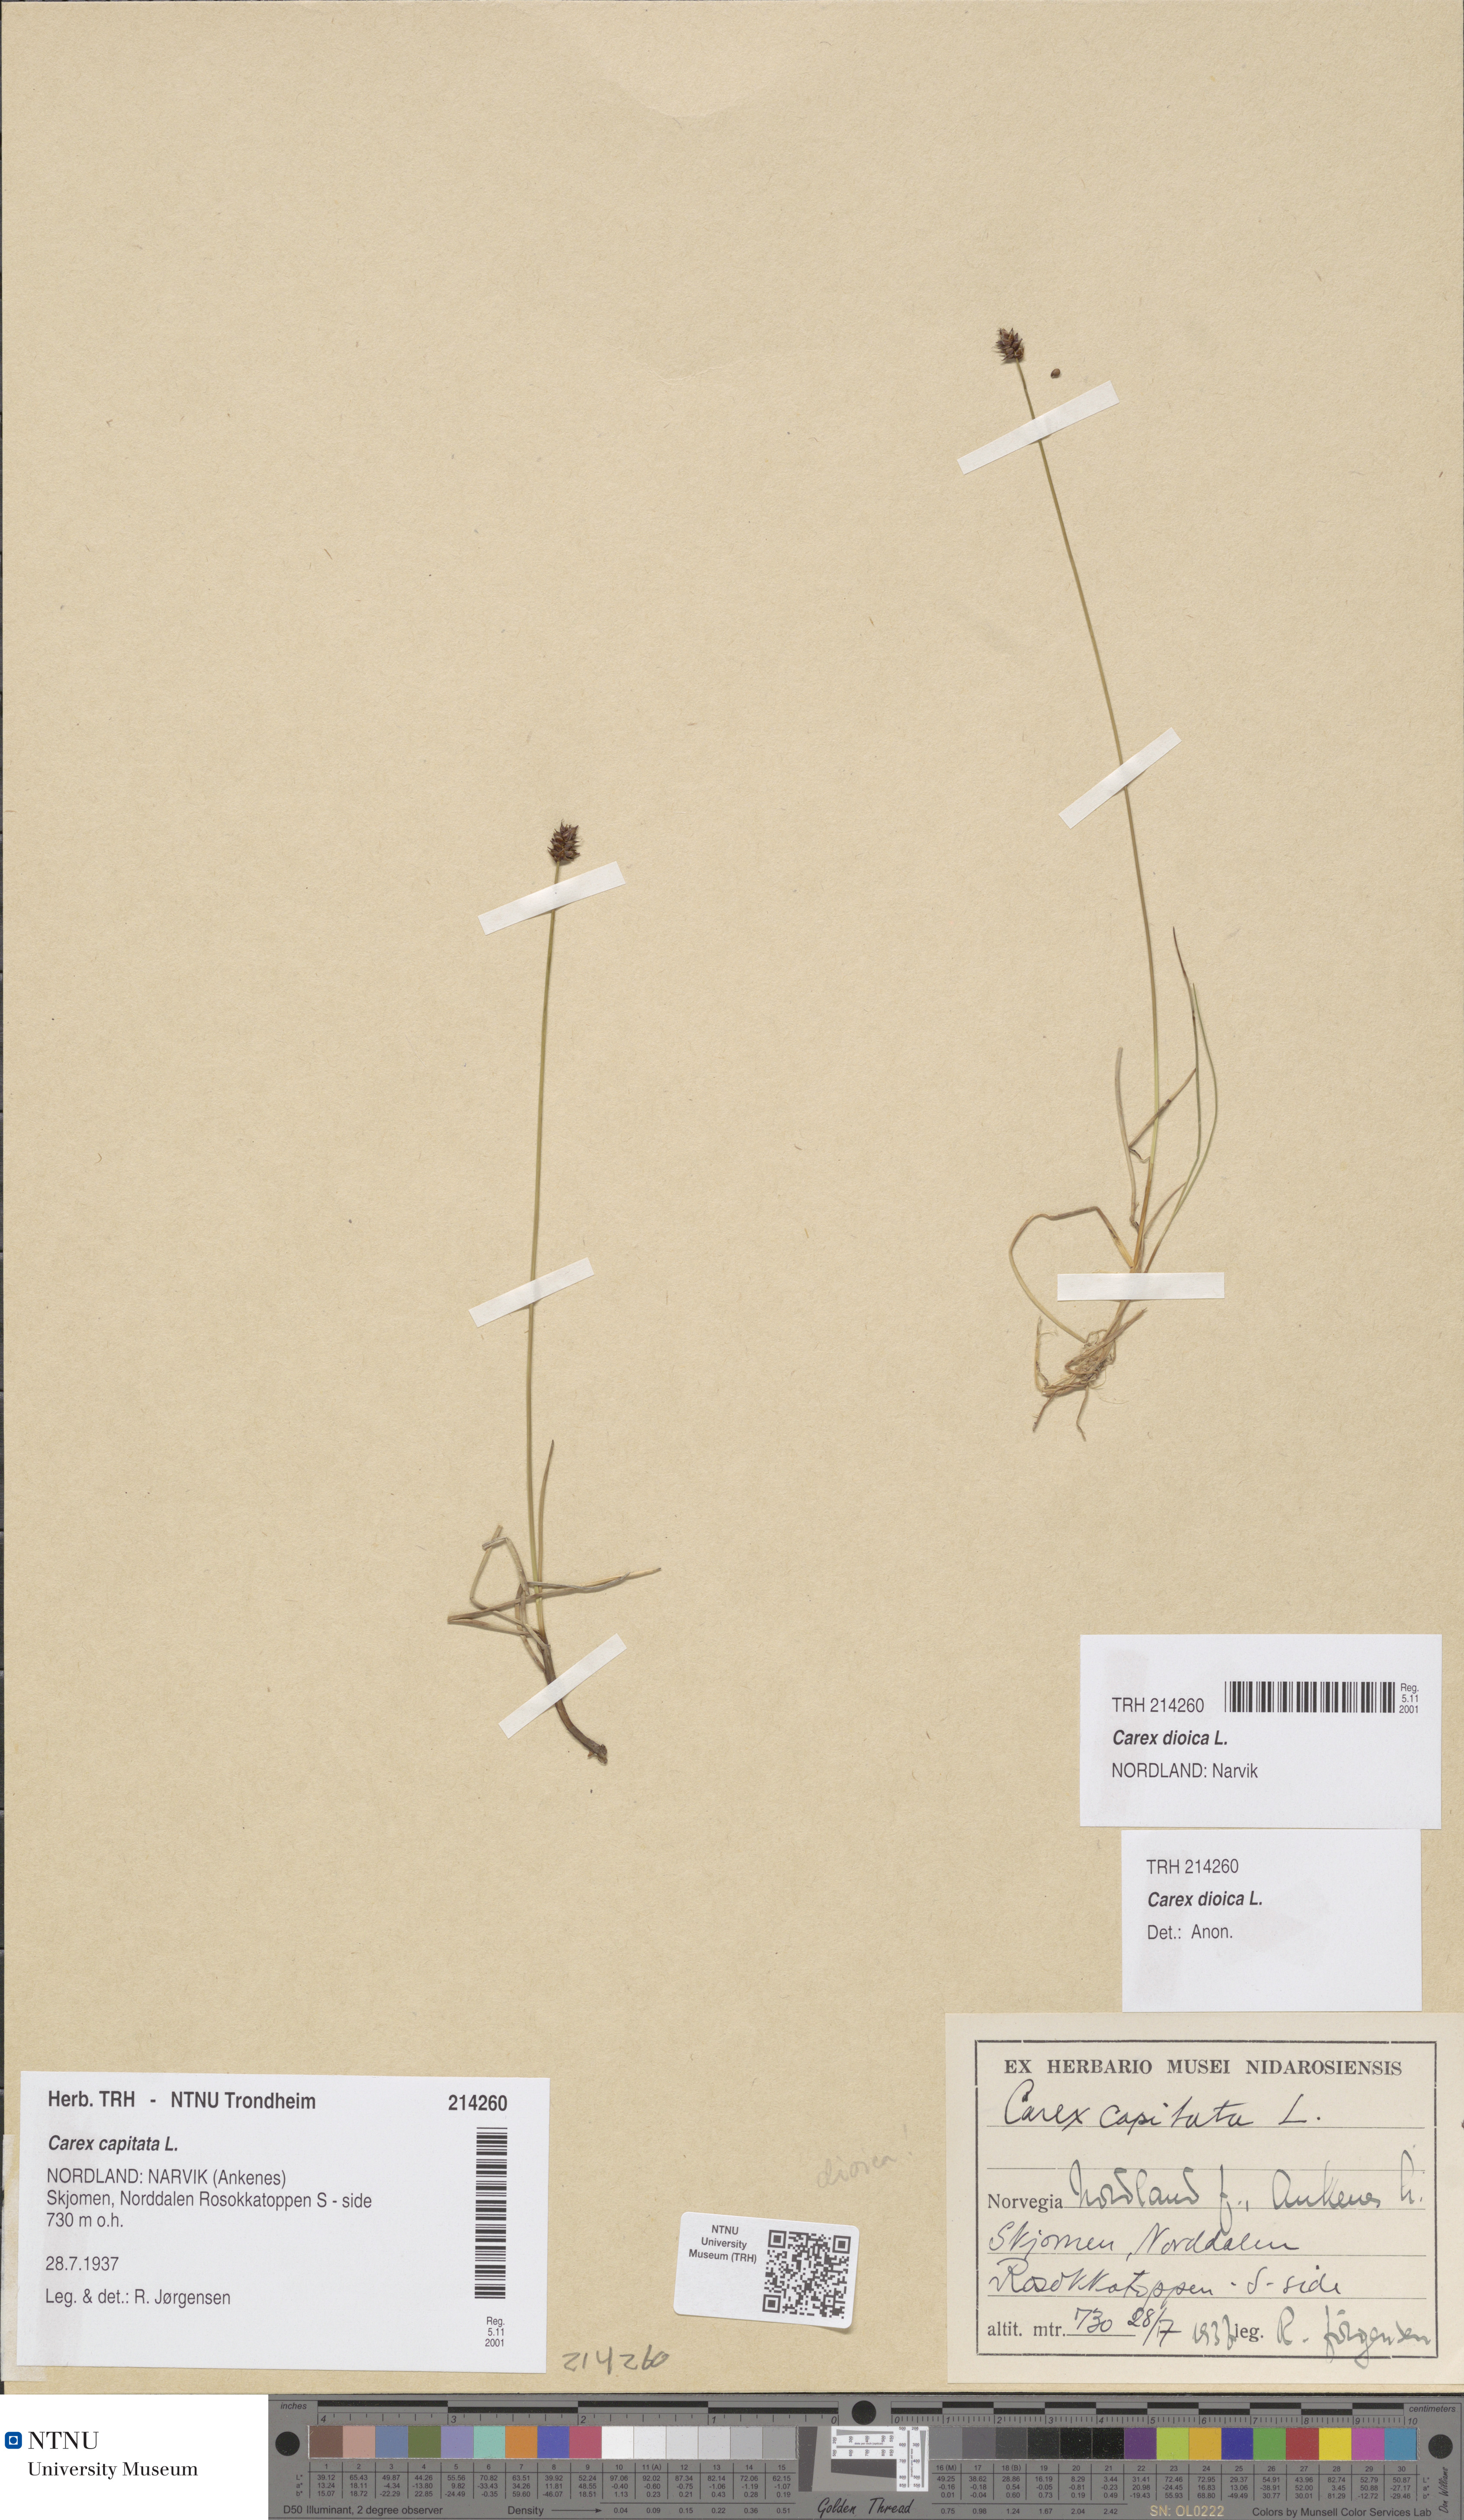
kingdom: Plantae
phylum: Tracheophyta
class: Liliopsida
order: Poales
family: Cyperaceae
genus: Carex
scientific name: Carex dioica
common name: Dioecious sedge
